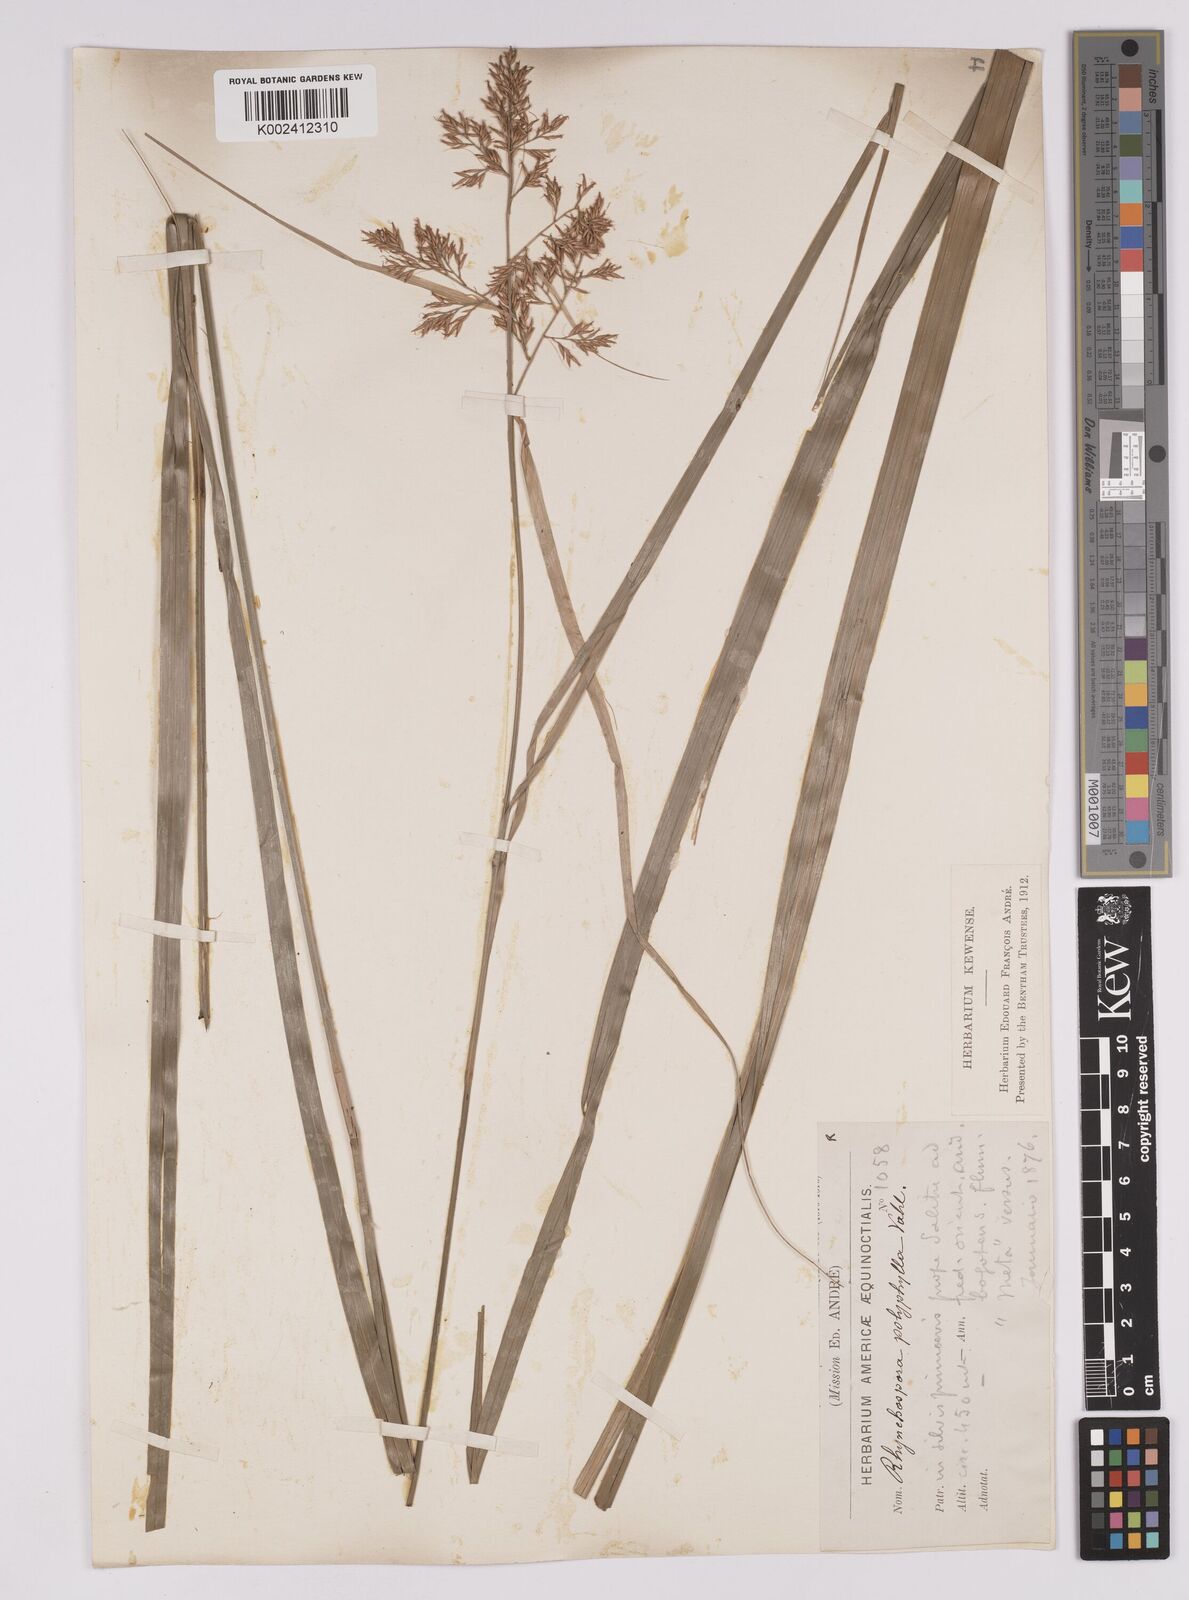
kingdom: Plantae
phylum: Tracheophyta
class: Liliopsida
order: Poales
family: Cyperaceae
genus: Rhynchospora
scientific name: Rhynchospora polyphylla
